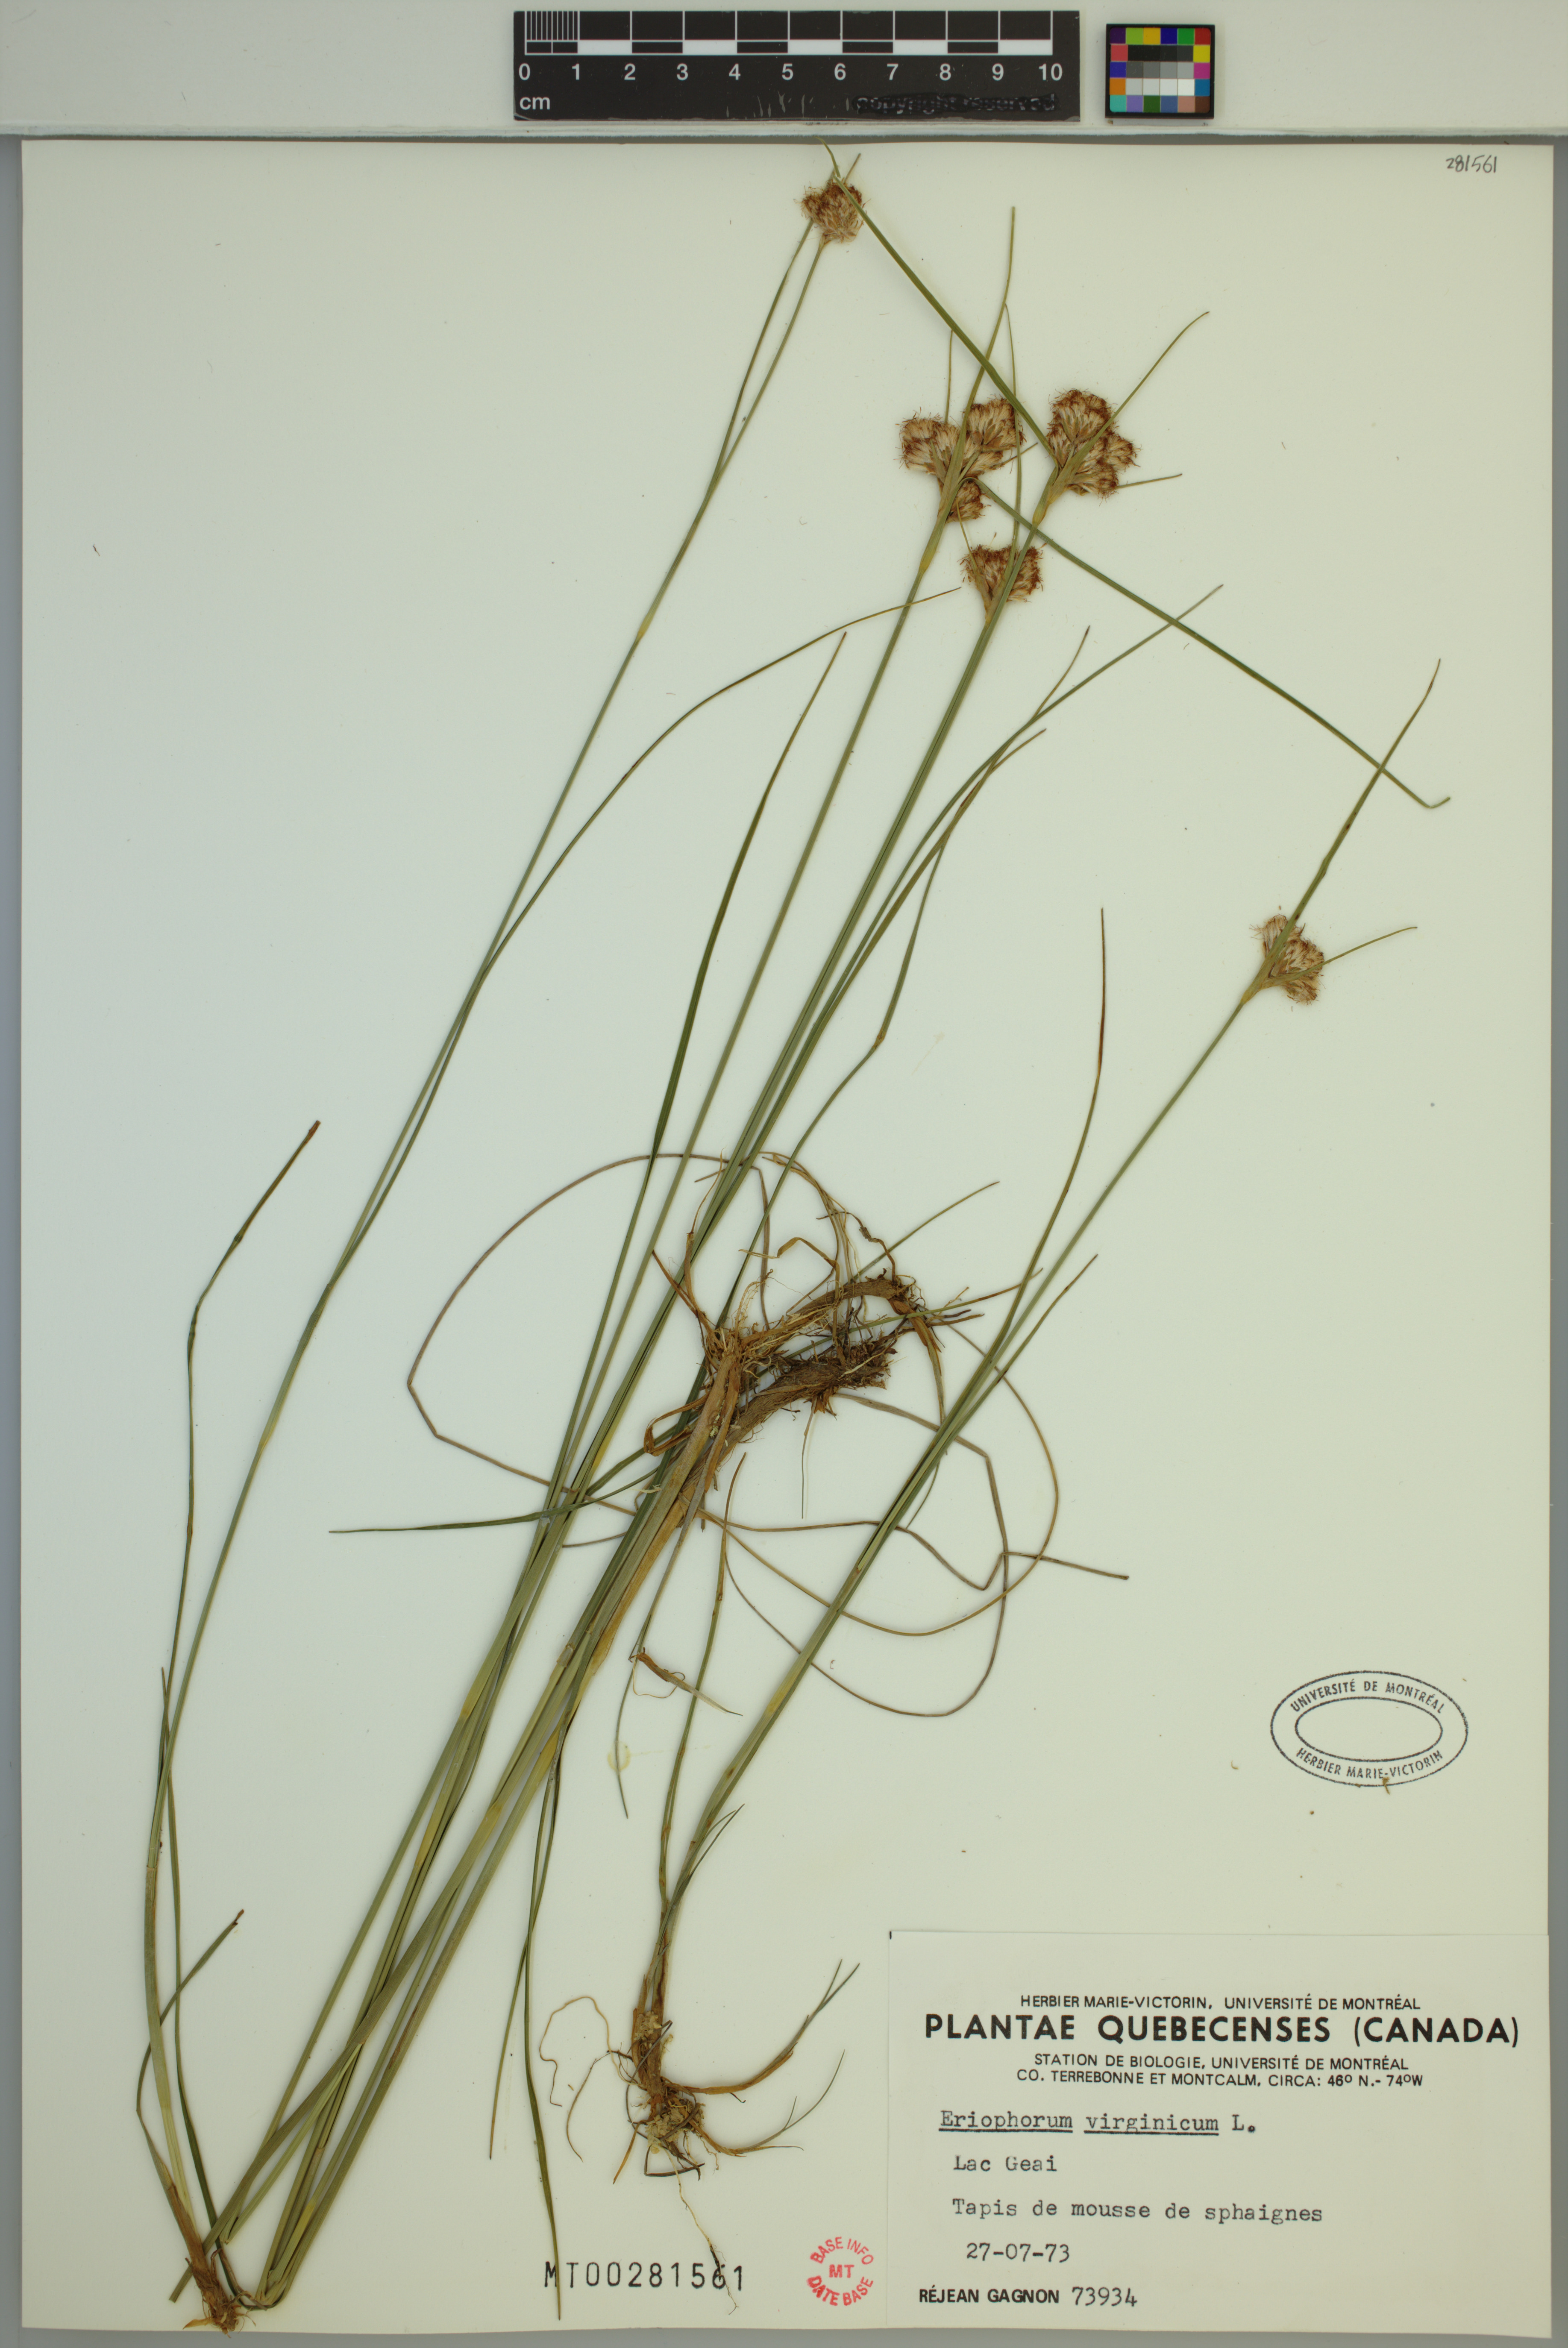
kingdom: Plantae
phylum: Tracheophyta
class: Liliopsida
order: Poales
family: Cyperaceae
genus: Eriophorum
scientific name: Eriophorum virginicum
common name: Tawny cottongrass
